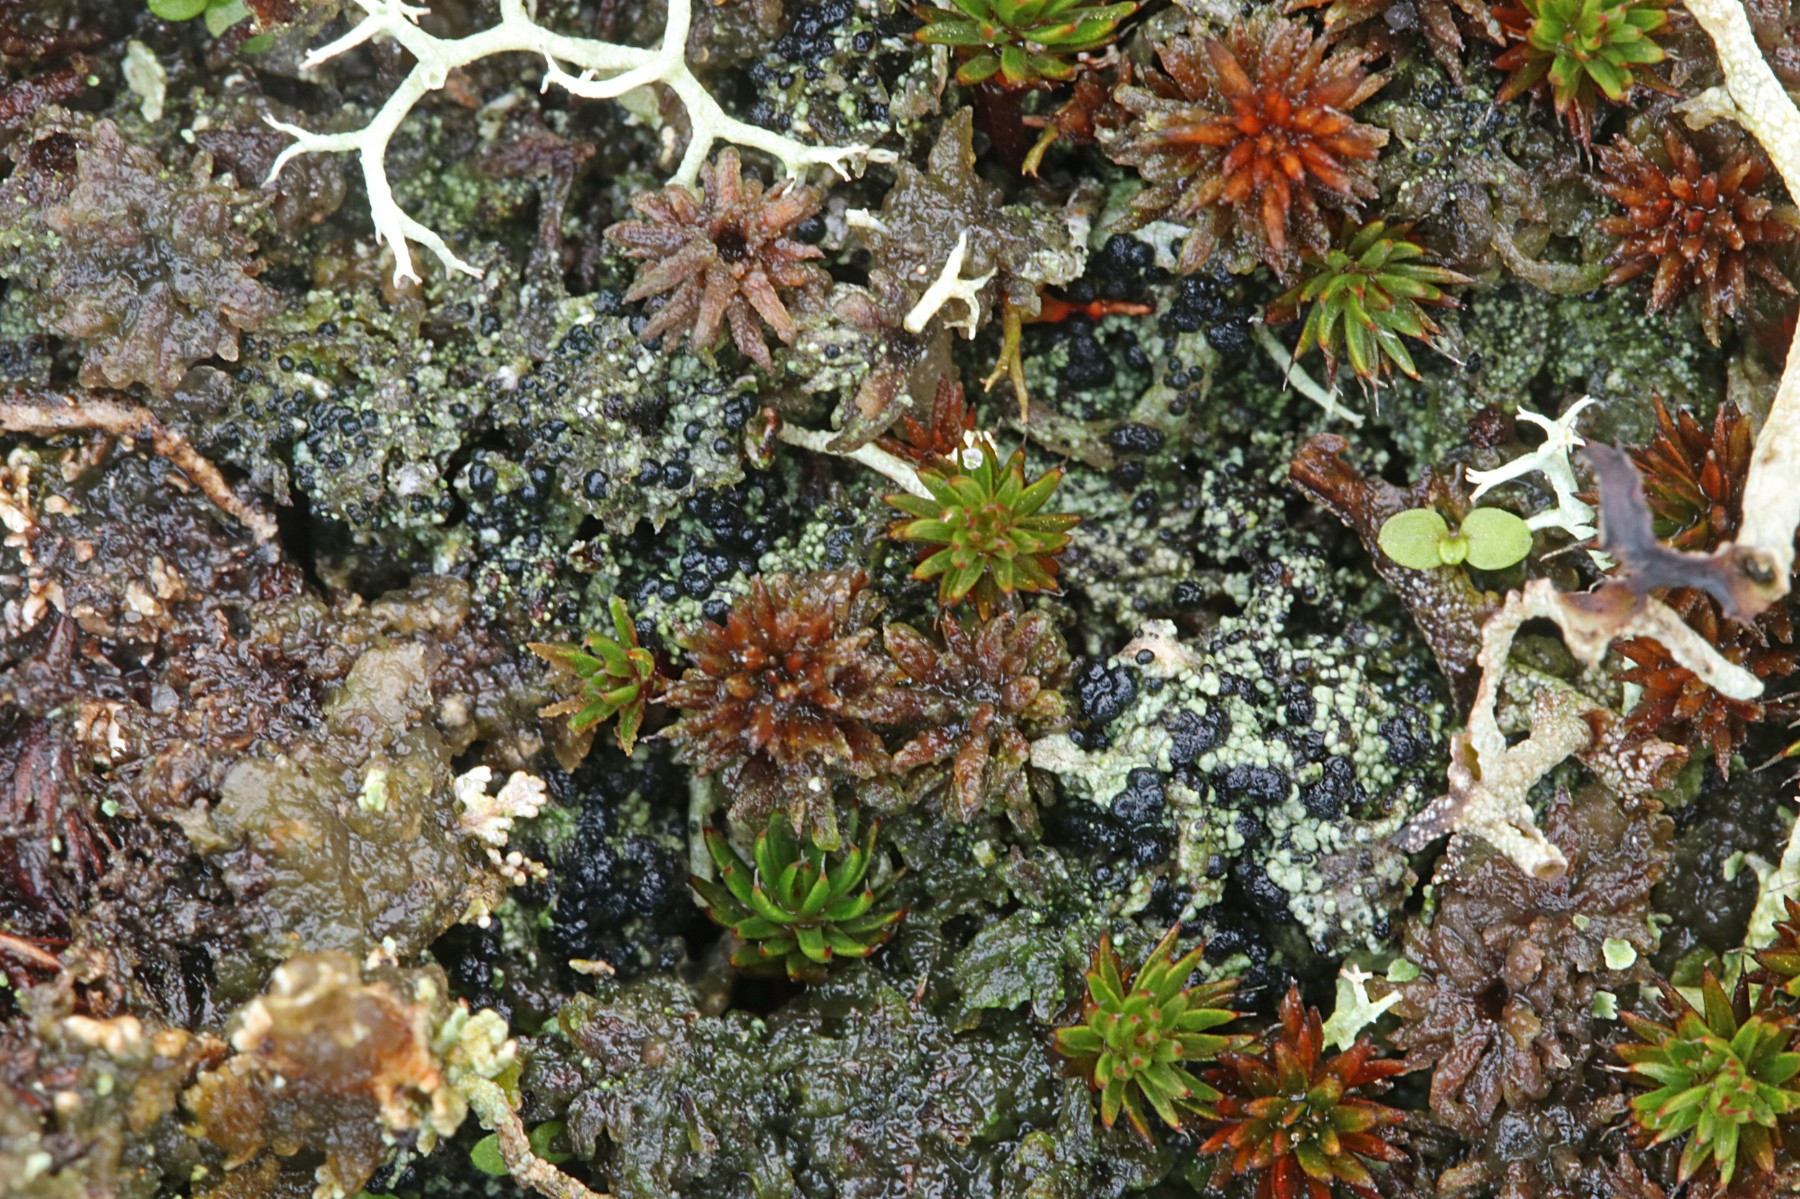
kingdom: Fungi
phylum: Ascomycota
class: Lecanoromycetes
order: Lecanorales
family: Byssolomataceae
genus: Micarea
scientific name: Micarea lignaria
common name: tørve-knaplav
